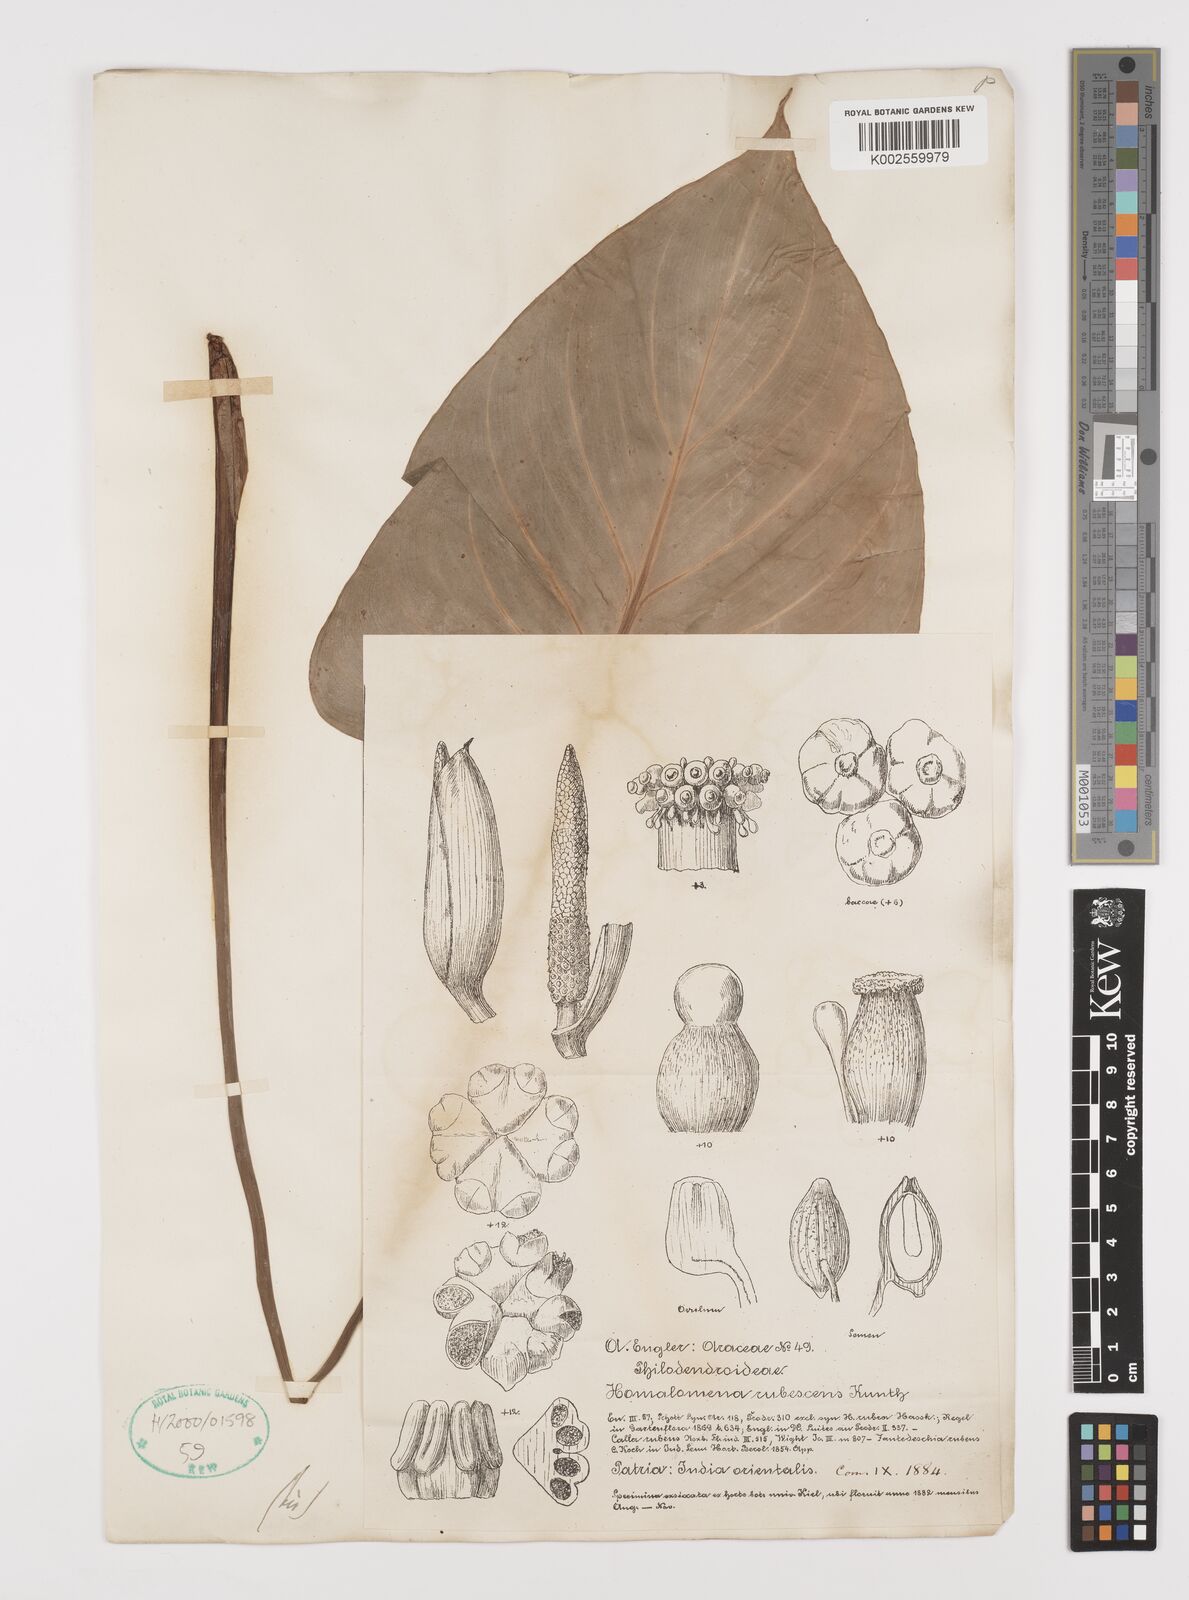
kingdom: Plantae
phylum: Tracheophyta
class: Liliopsida
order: Alismatales
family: Araceae
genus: Homalomena
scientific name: Homalomena rubescens
